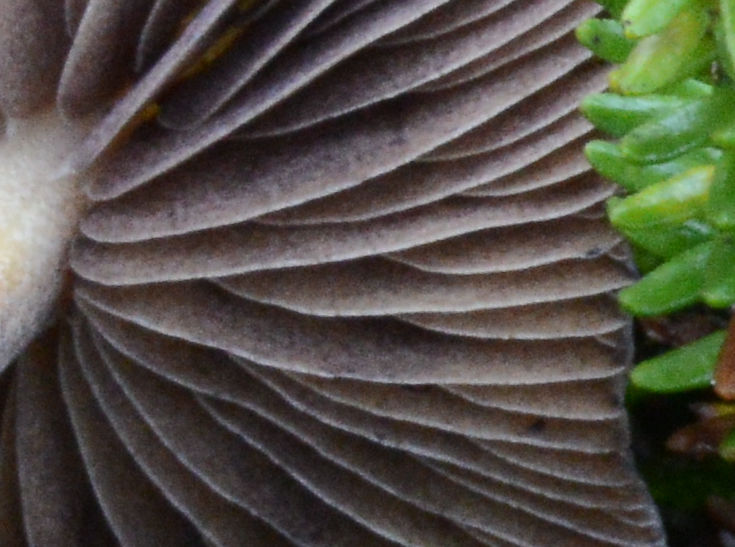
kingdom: Fungi
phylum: Basidiomycota
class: Agaricomycetes
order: Agaricales
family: Hymenogastraceae
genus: Psilocybe
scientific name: Psilocybe fimetaria
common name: prægtig nøgenhat
